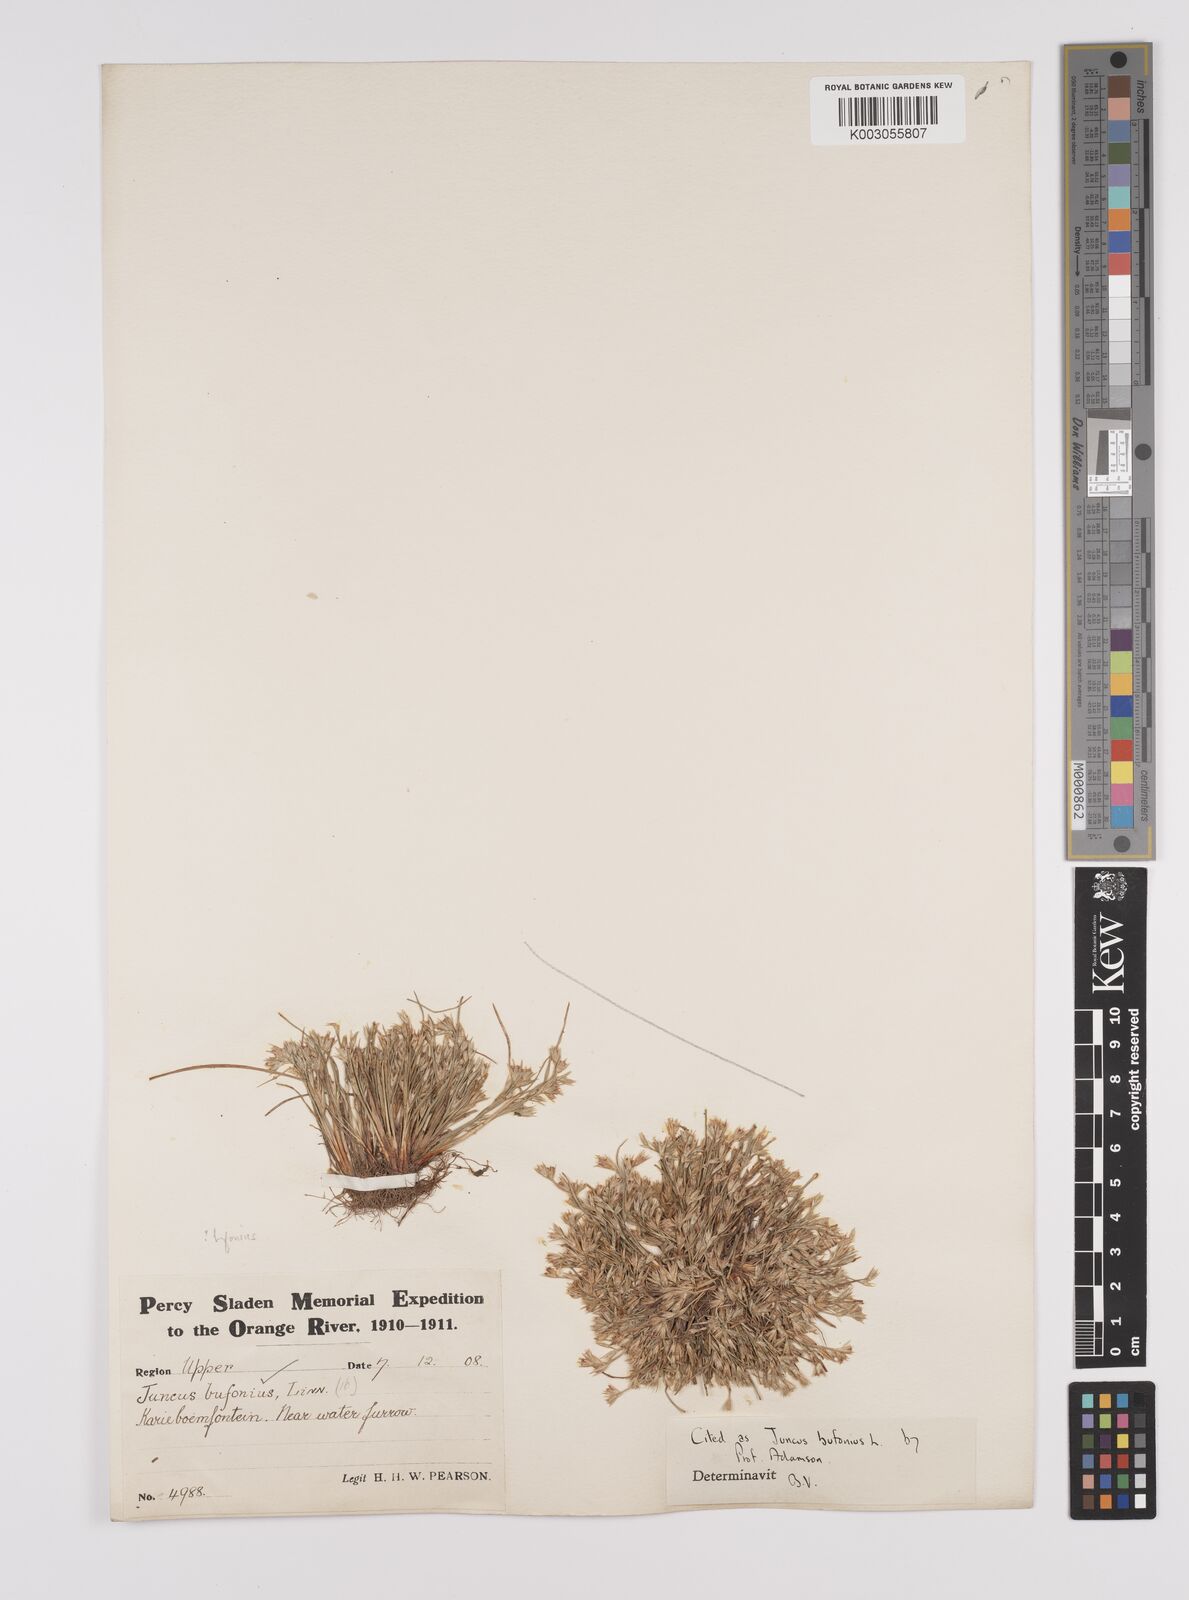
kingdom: Plantae
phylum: Tracheophyta
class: Liliopsida
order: Poales
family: Juncaceae
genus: Juncus
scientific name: Juncus bufonius
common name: Toad rush
